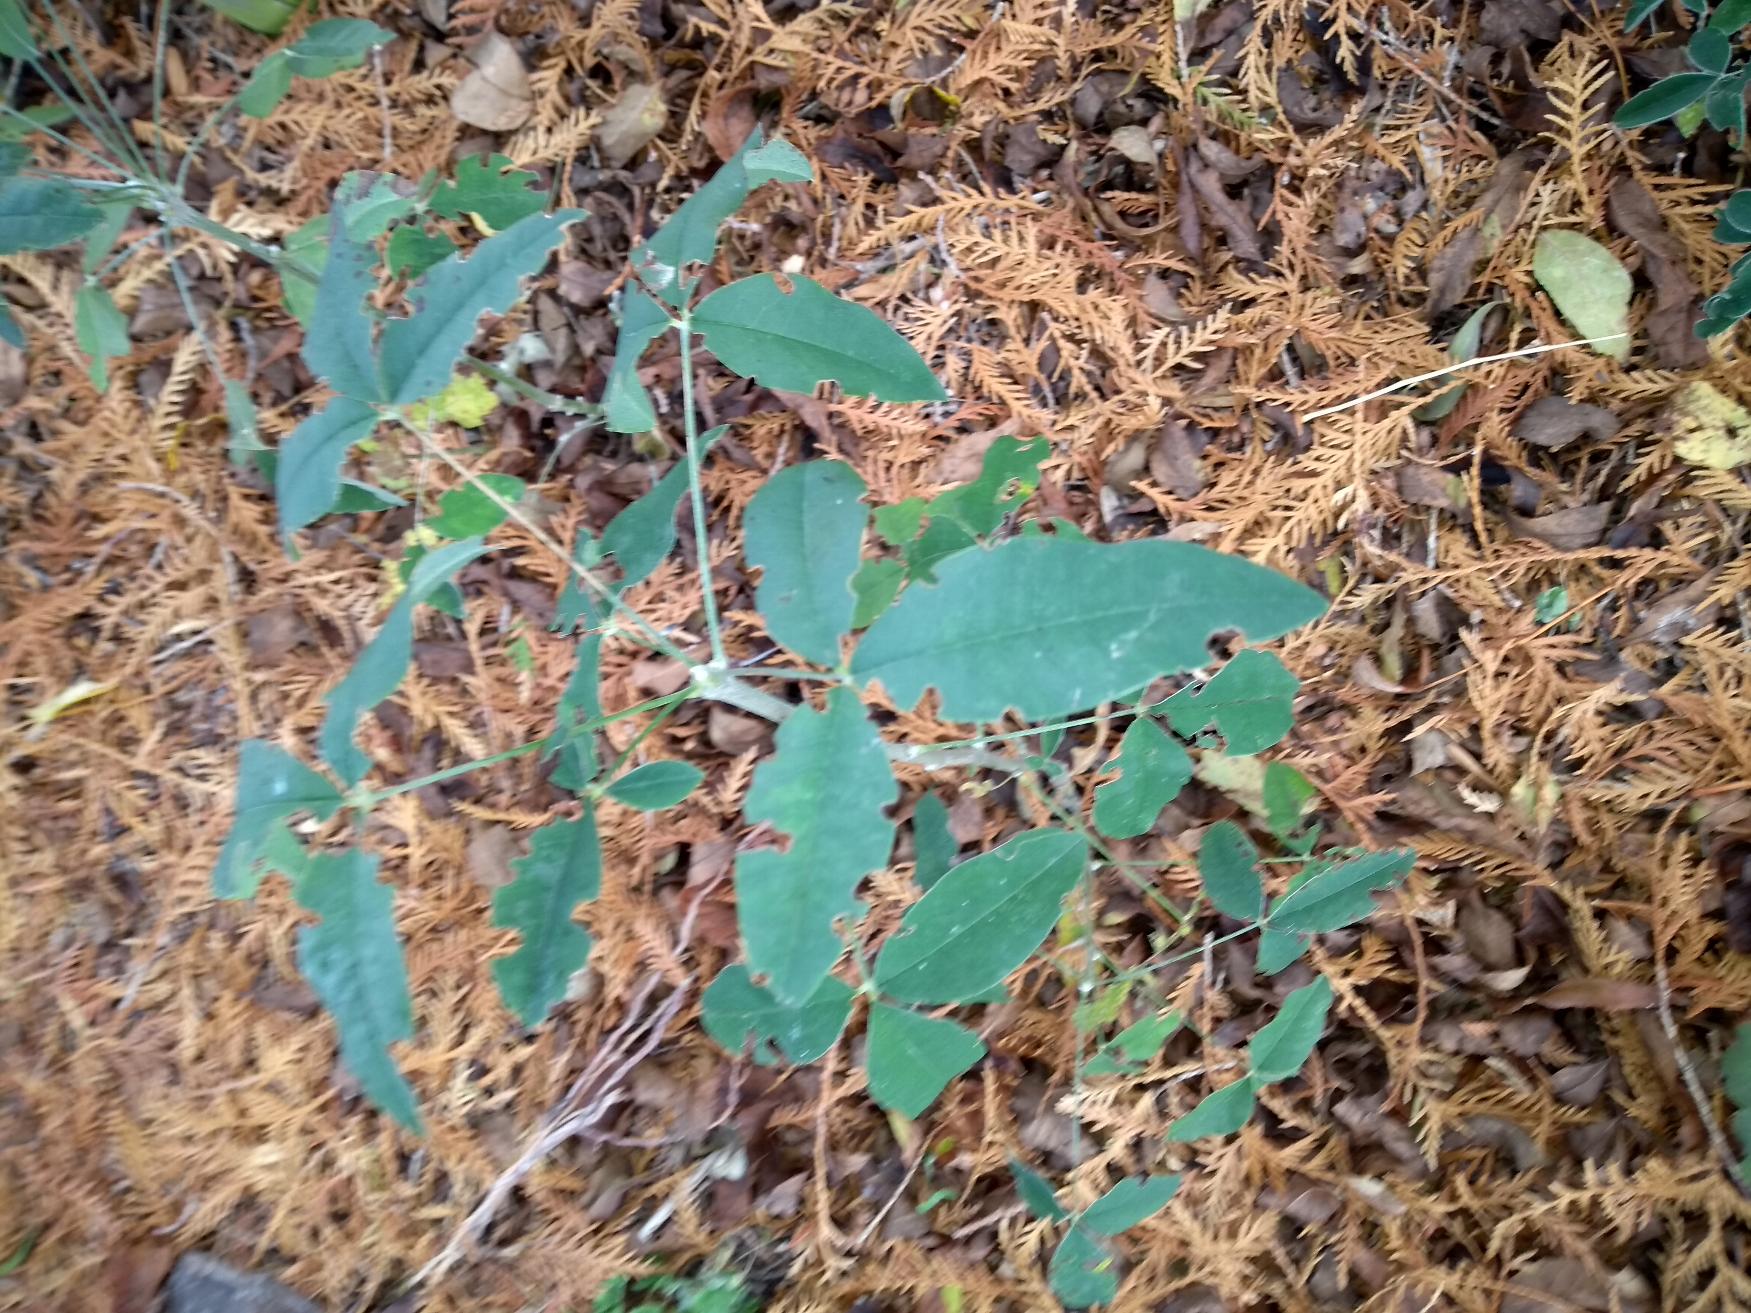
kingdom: Plantae
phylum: Tracheophyta
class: Magnoliopsida
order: Fabales
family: Fabaceae
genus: Laburnum
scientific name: Laburnum anagyroides
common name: Guldregn
